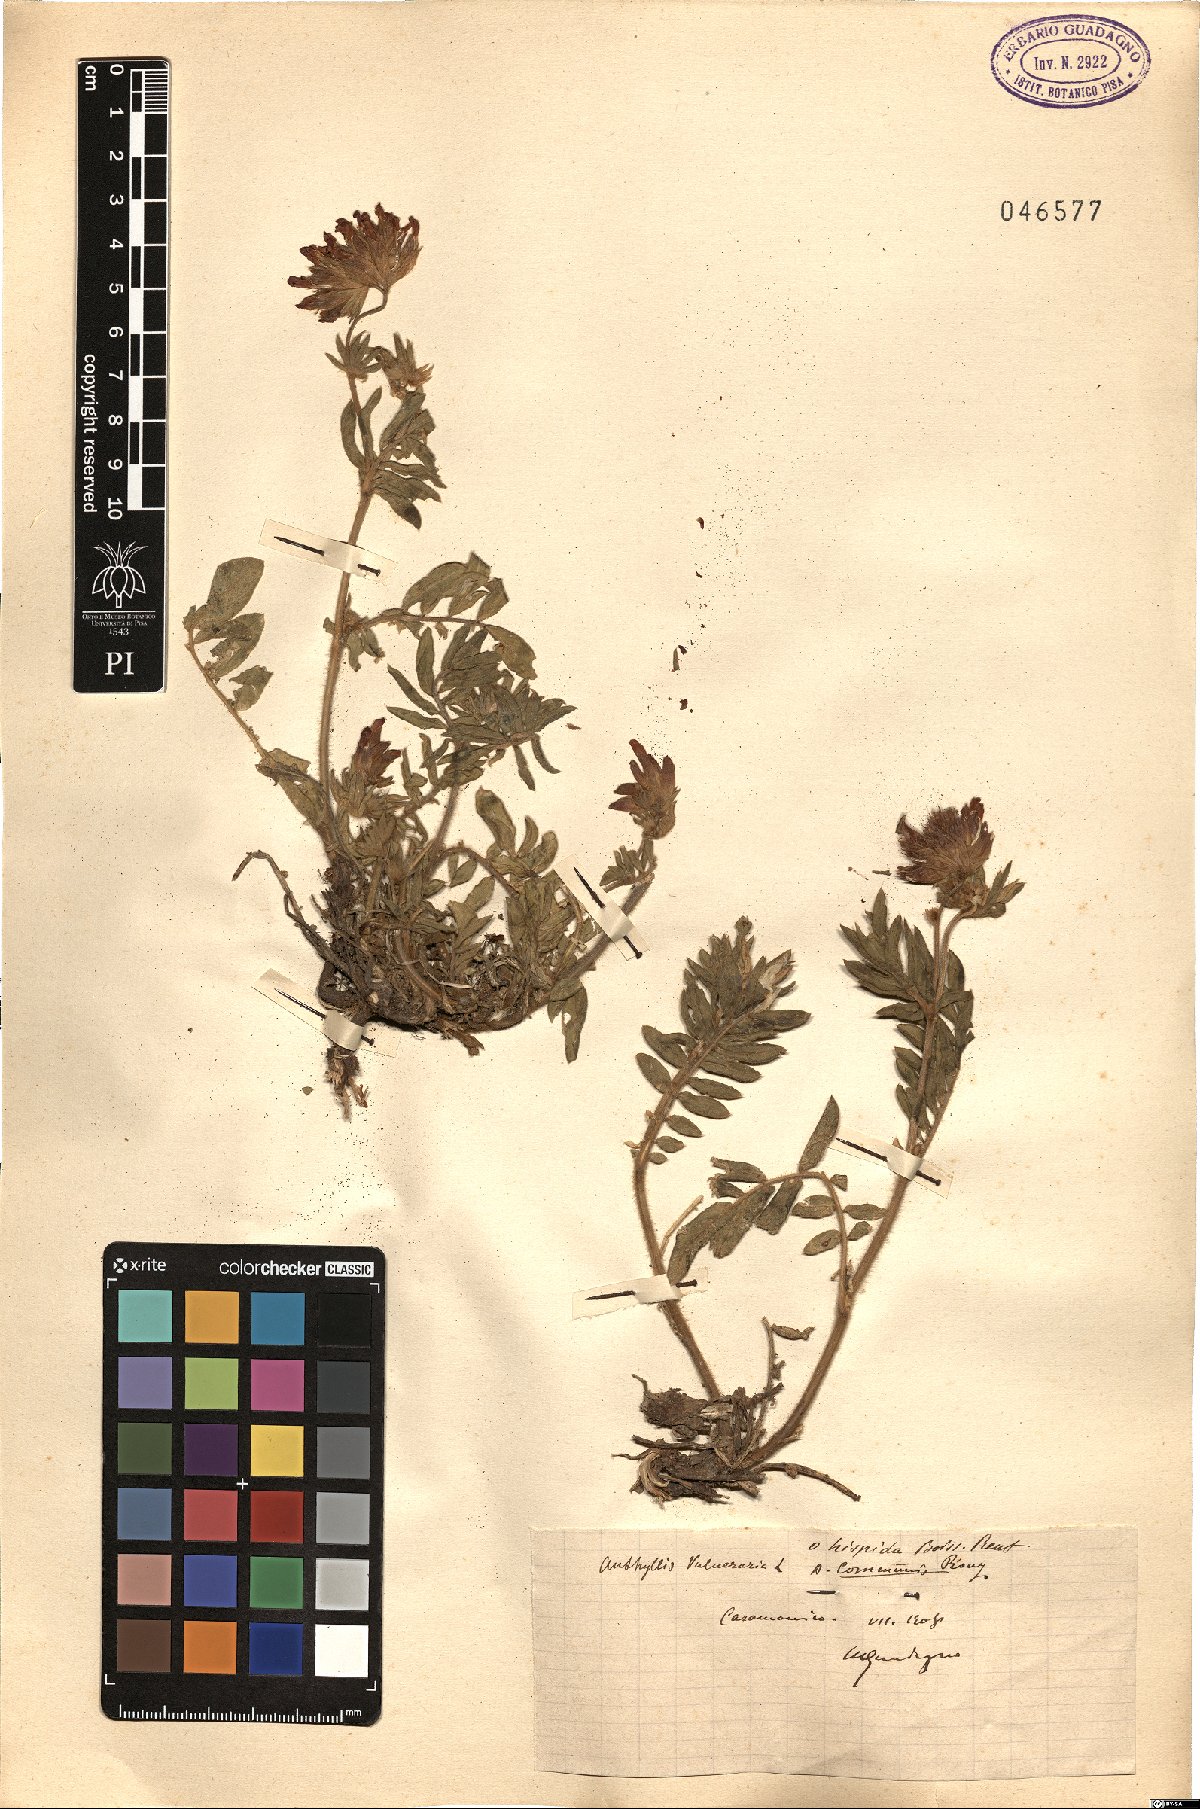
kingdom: Plantae
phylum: Tracheophyta
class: Magnoliopsida
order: Fabales
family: Fabaceae
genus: Anthyllis
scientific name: Anthyllis vulneraria
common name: Kidney vetch
